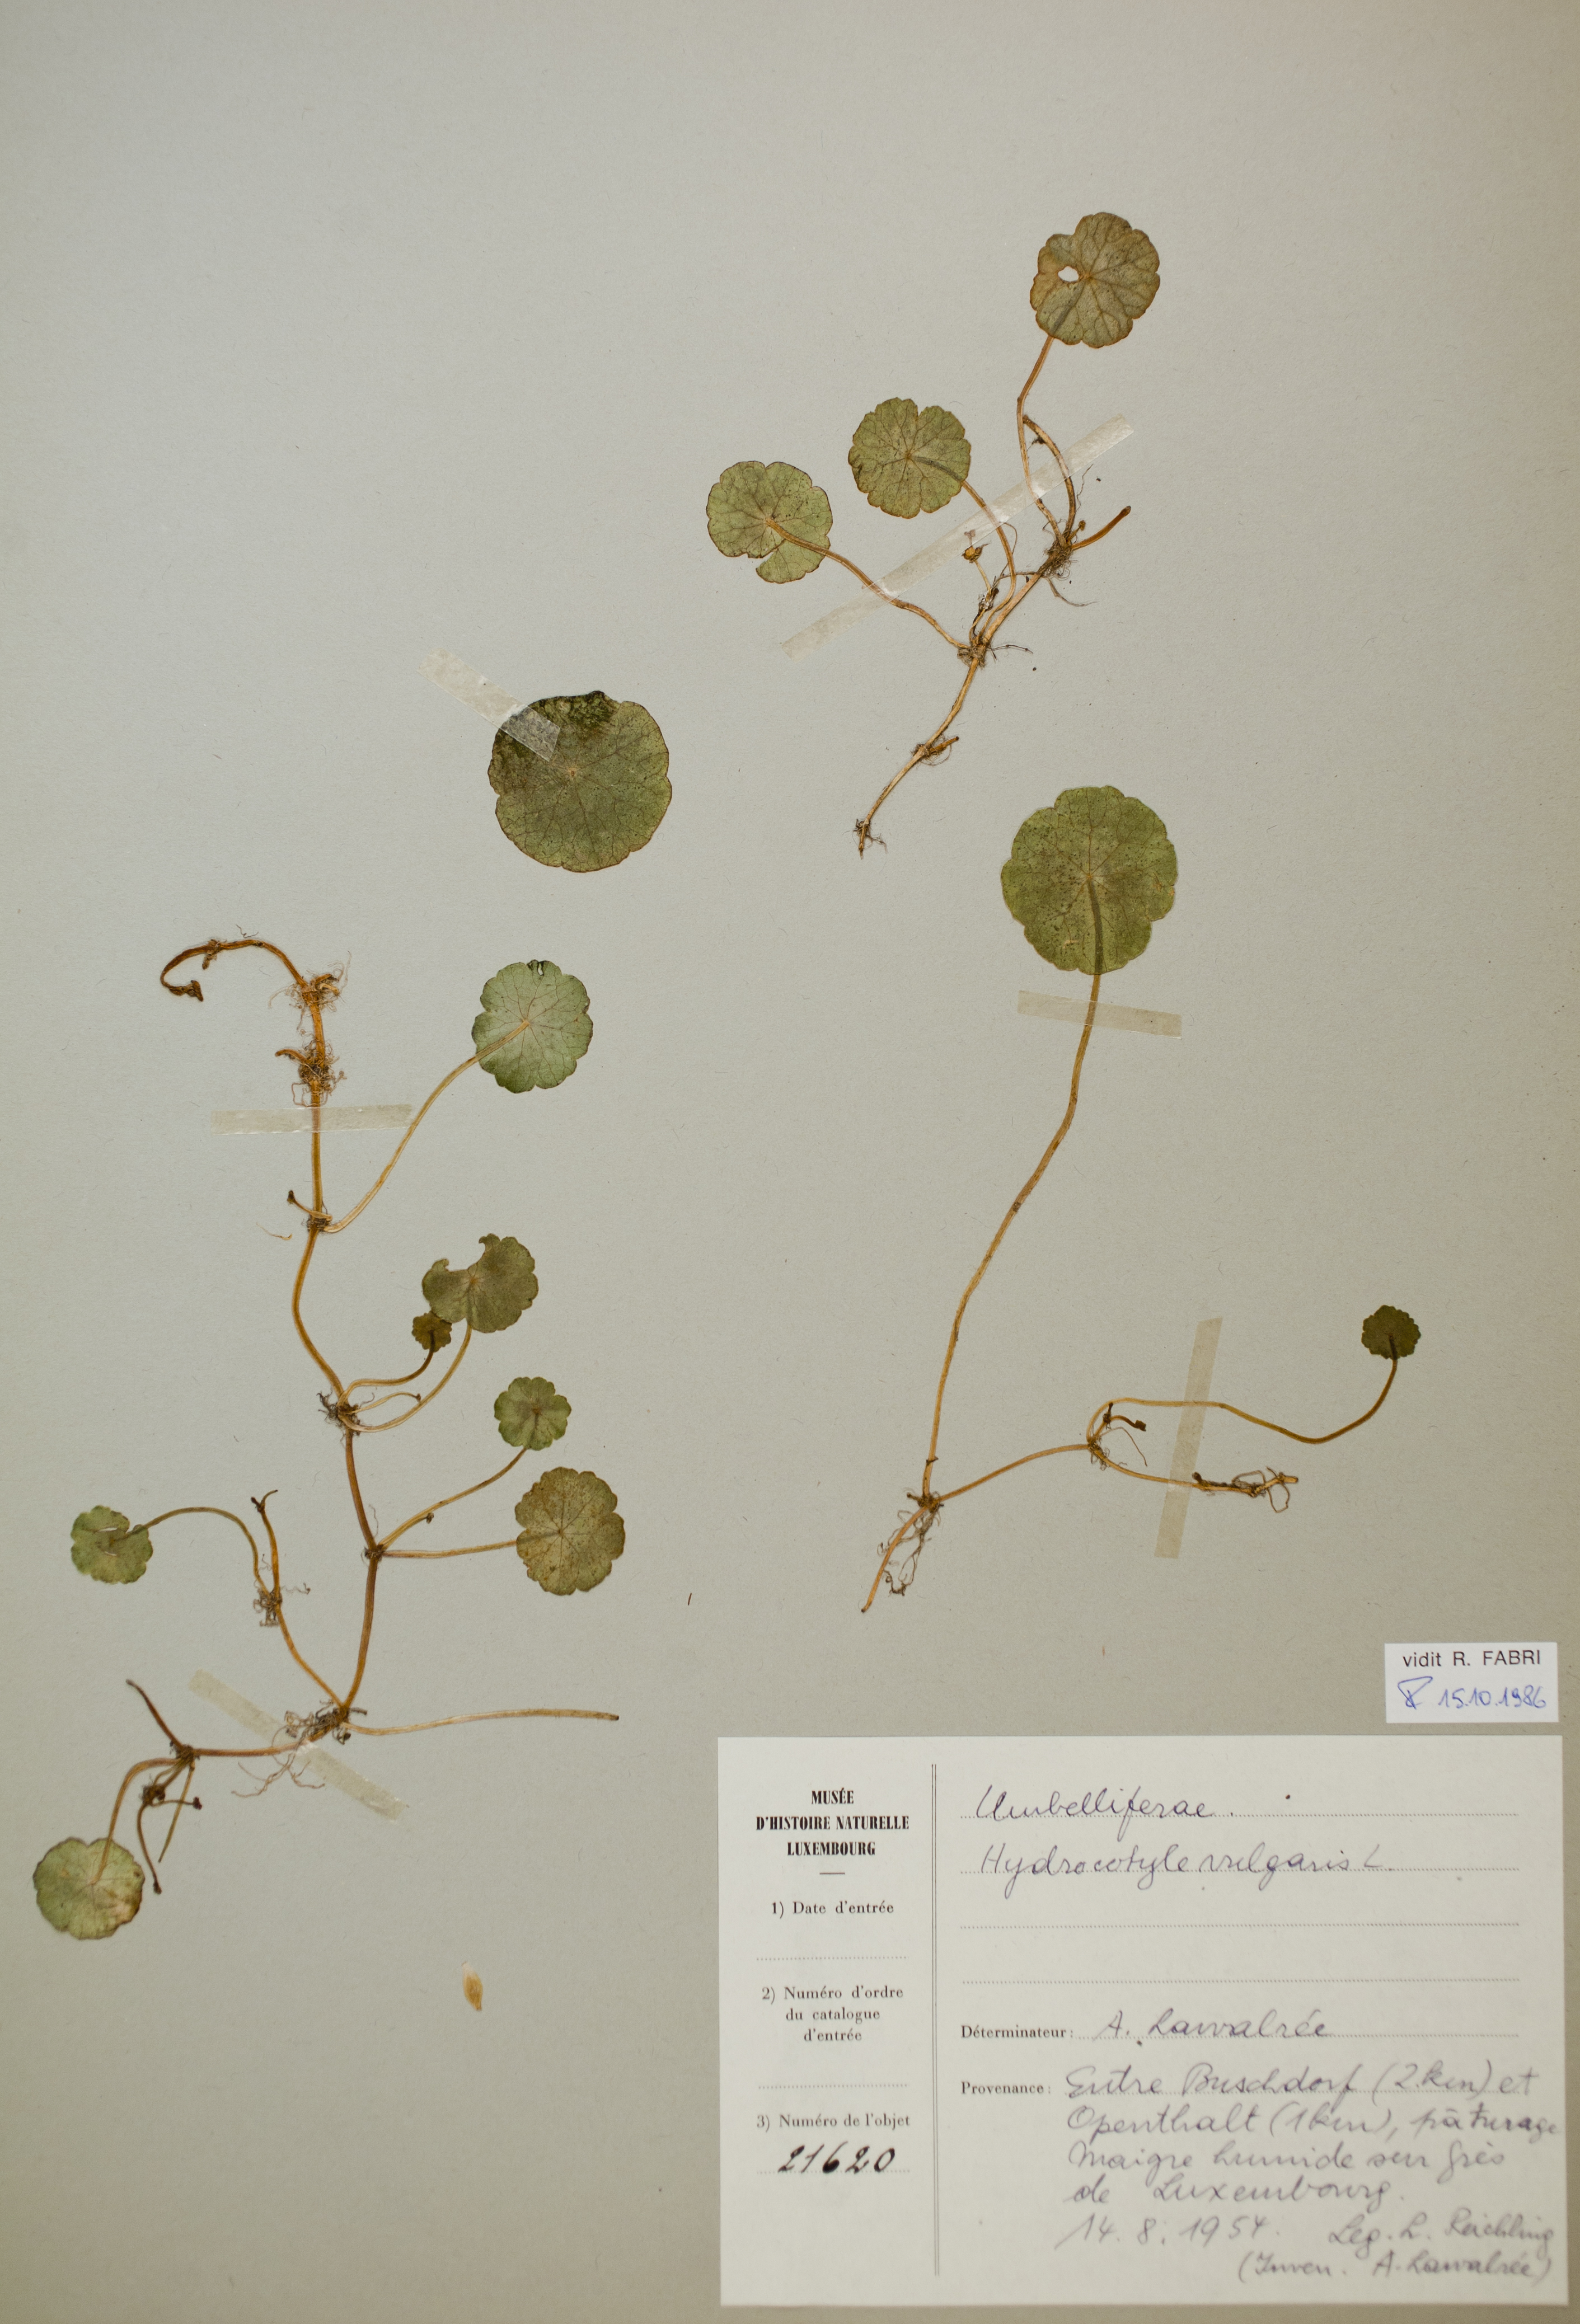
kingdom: Plantae
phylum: Tracheophyta
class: Magnoliopsida
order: Apiales
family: Araliaceae
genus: Hydrocotyle
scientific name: Hydrocotyle vulgaris
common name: Marsh pennywort
